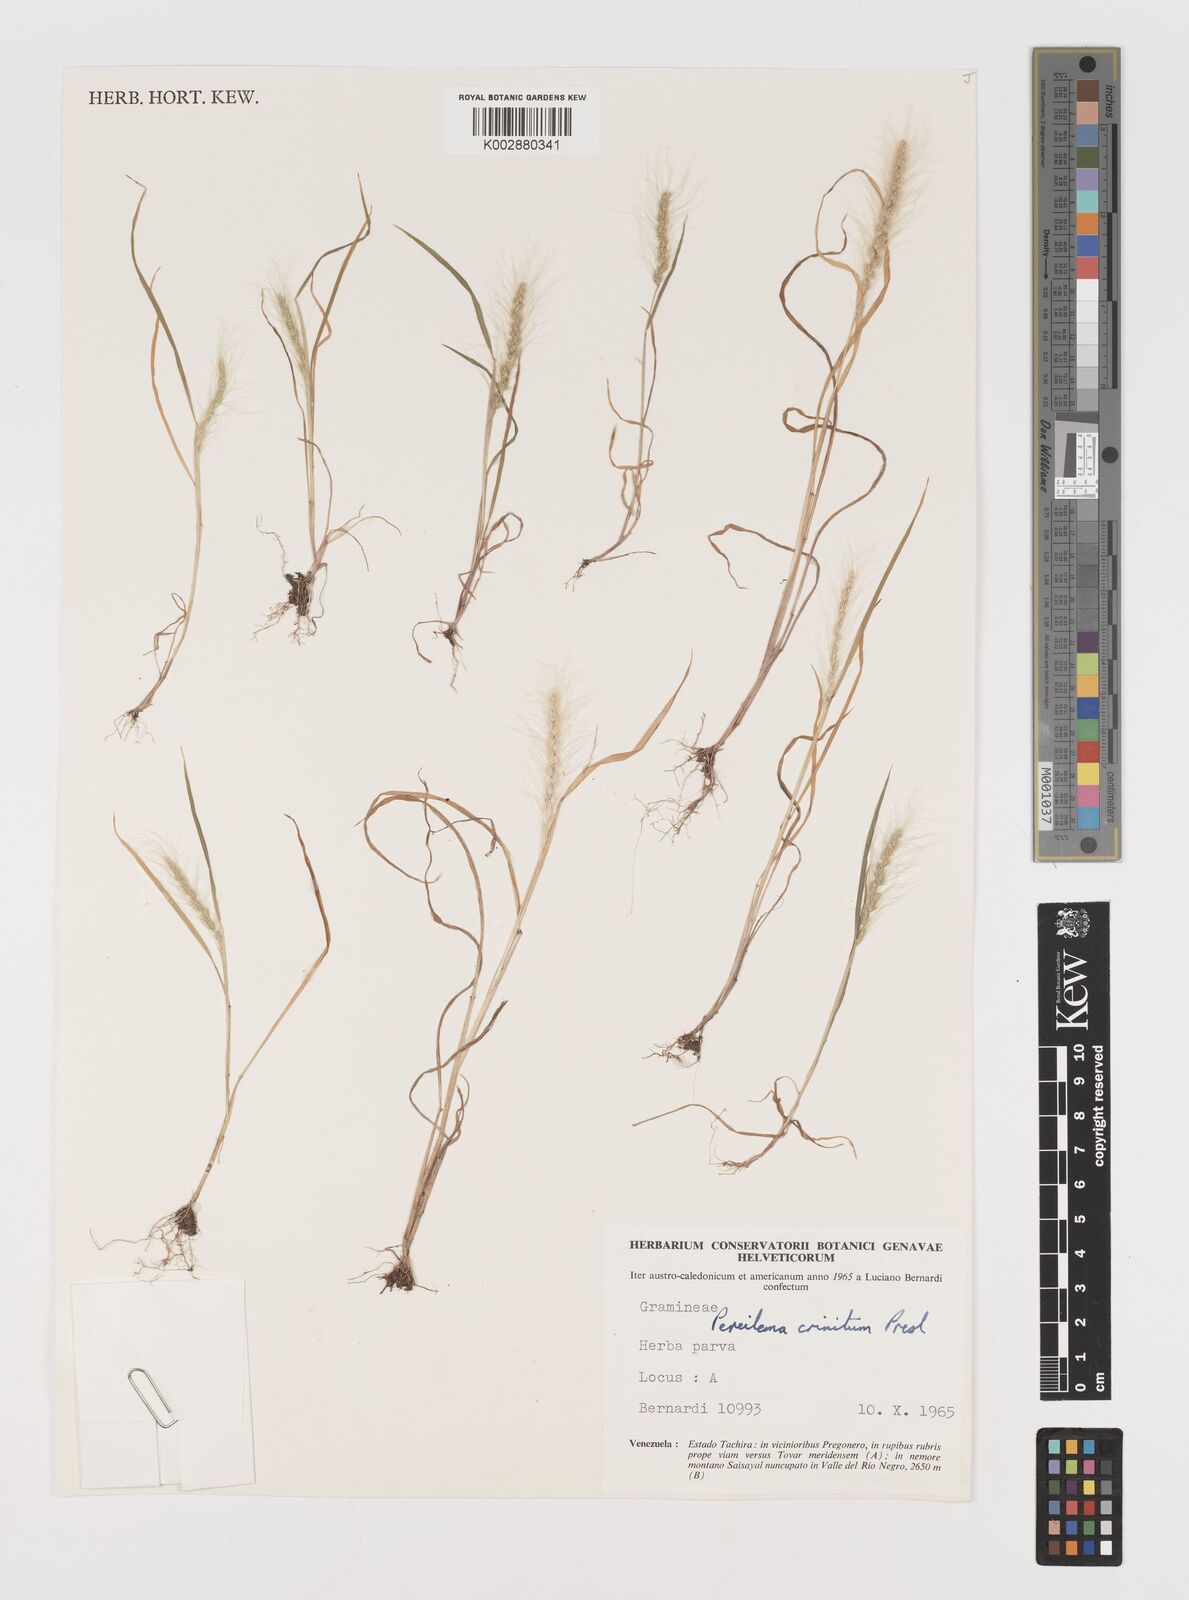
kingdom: Plantae
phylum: Tracheophyta
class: Liliopsida
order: Poales
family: Poaceae
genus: Muhlenbergia
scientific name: Muhlenbergia pereilema
